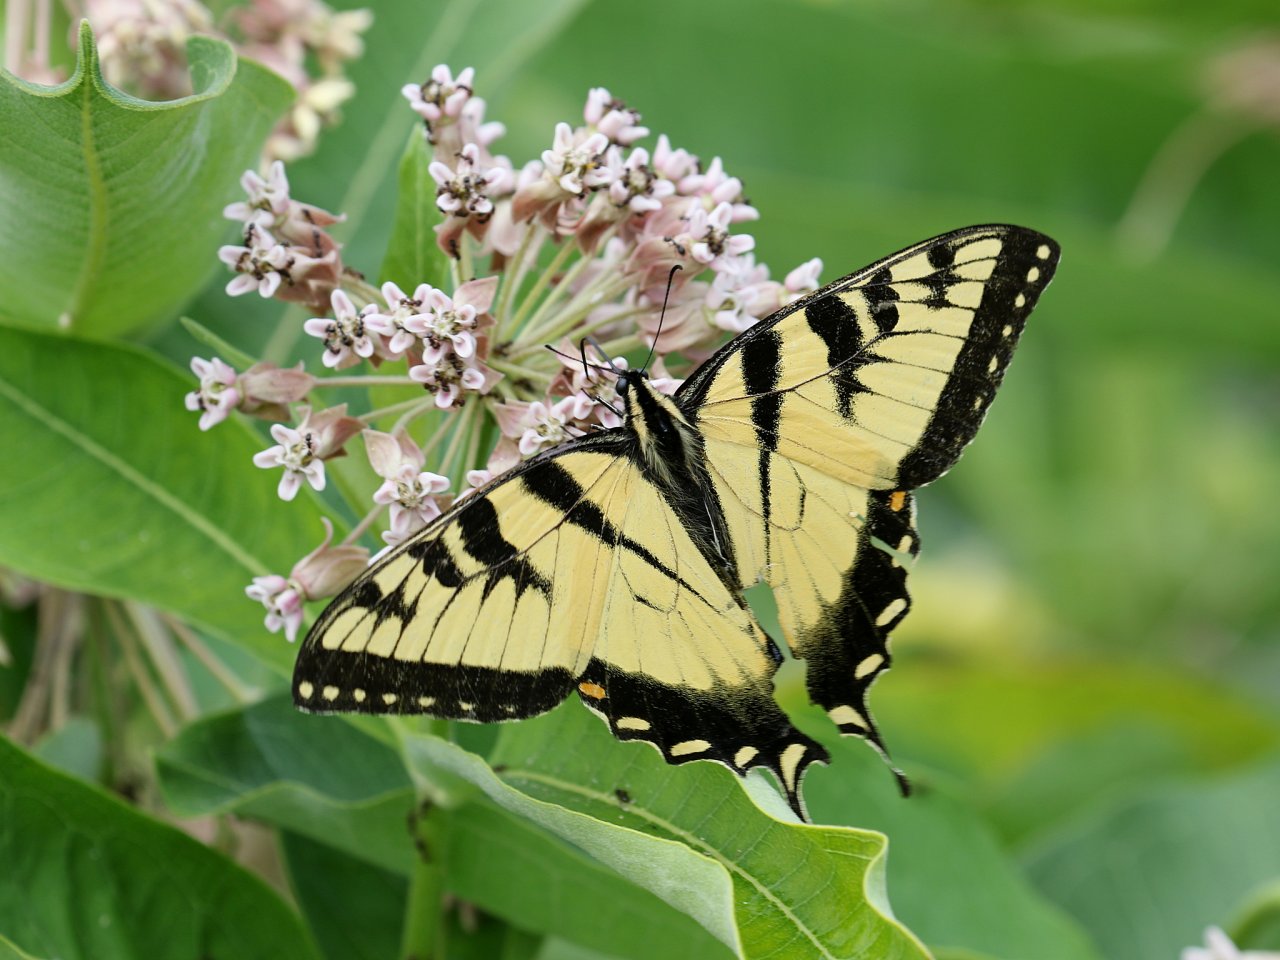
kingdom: Animalia
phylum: Arthropoda
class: Insecta
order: Lepidoptera
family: Papilionidae
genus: Pterourus
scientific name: Pterourus glaucus
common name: Eastern Tiger Swallowtail
